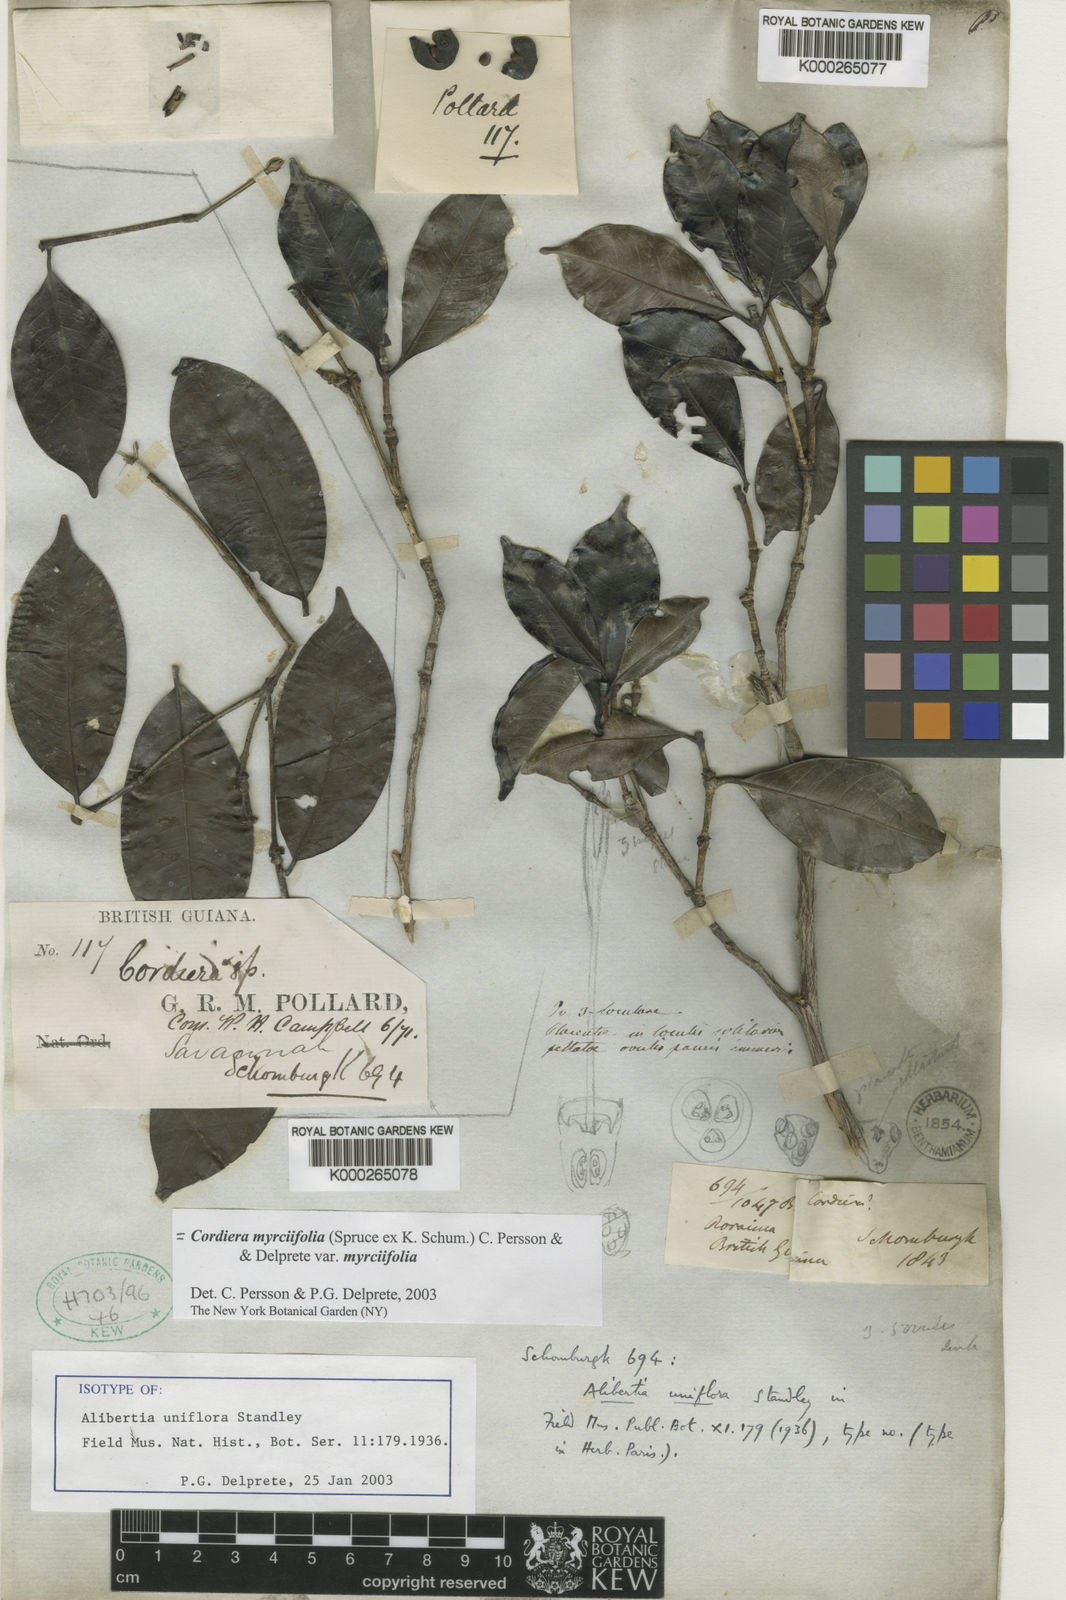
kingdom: Plantae
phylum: Tracheophyta
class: Magnoliopsida
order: Gentianales
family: Rubiaceae
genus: Cordiera
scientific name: Cordiera myrciifolia
